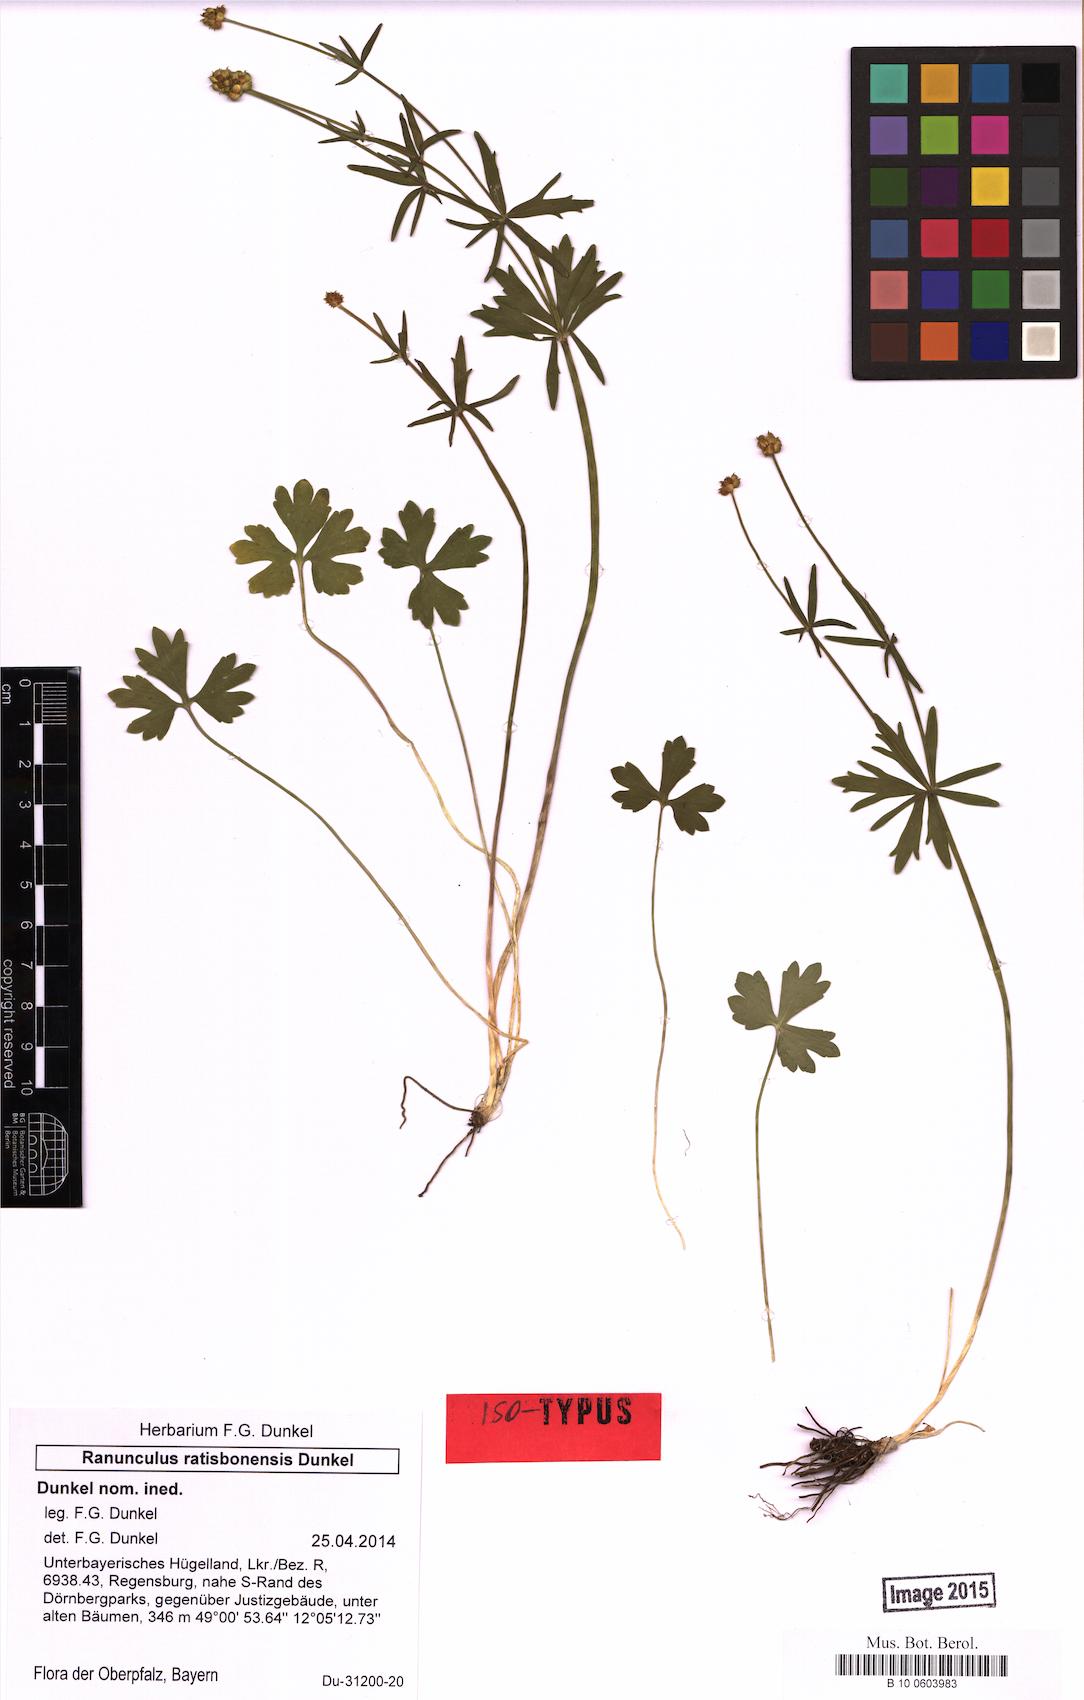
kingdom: Plantae
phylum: Tracheophyta
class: Magnoliopsida
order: Ranunculales
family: Ranunculaceae
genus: Ranunculus
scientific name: Ranunculus ratisbonensis
